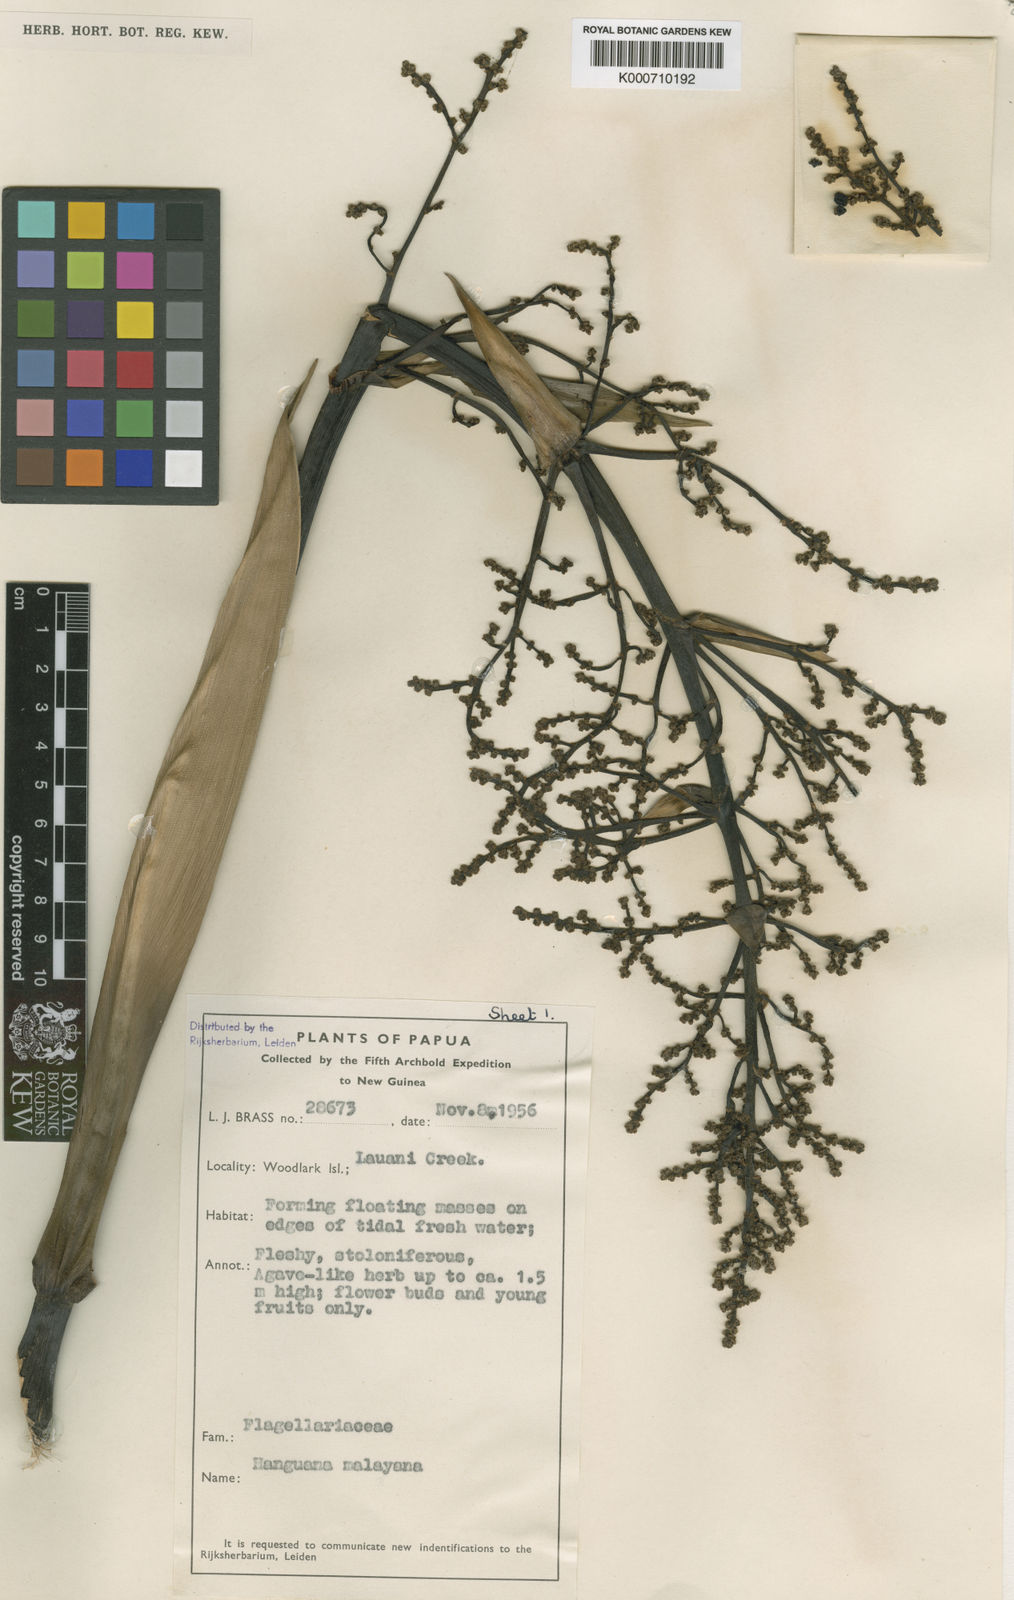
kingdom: Plantae
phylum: Tracheophyta
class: Liliopsida
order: Commelinales
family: Hanguanaceae
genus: Hanguana
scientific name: Hanguana malayana
